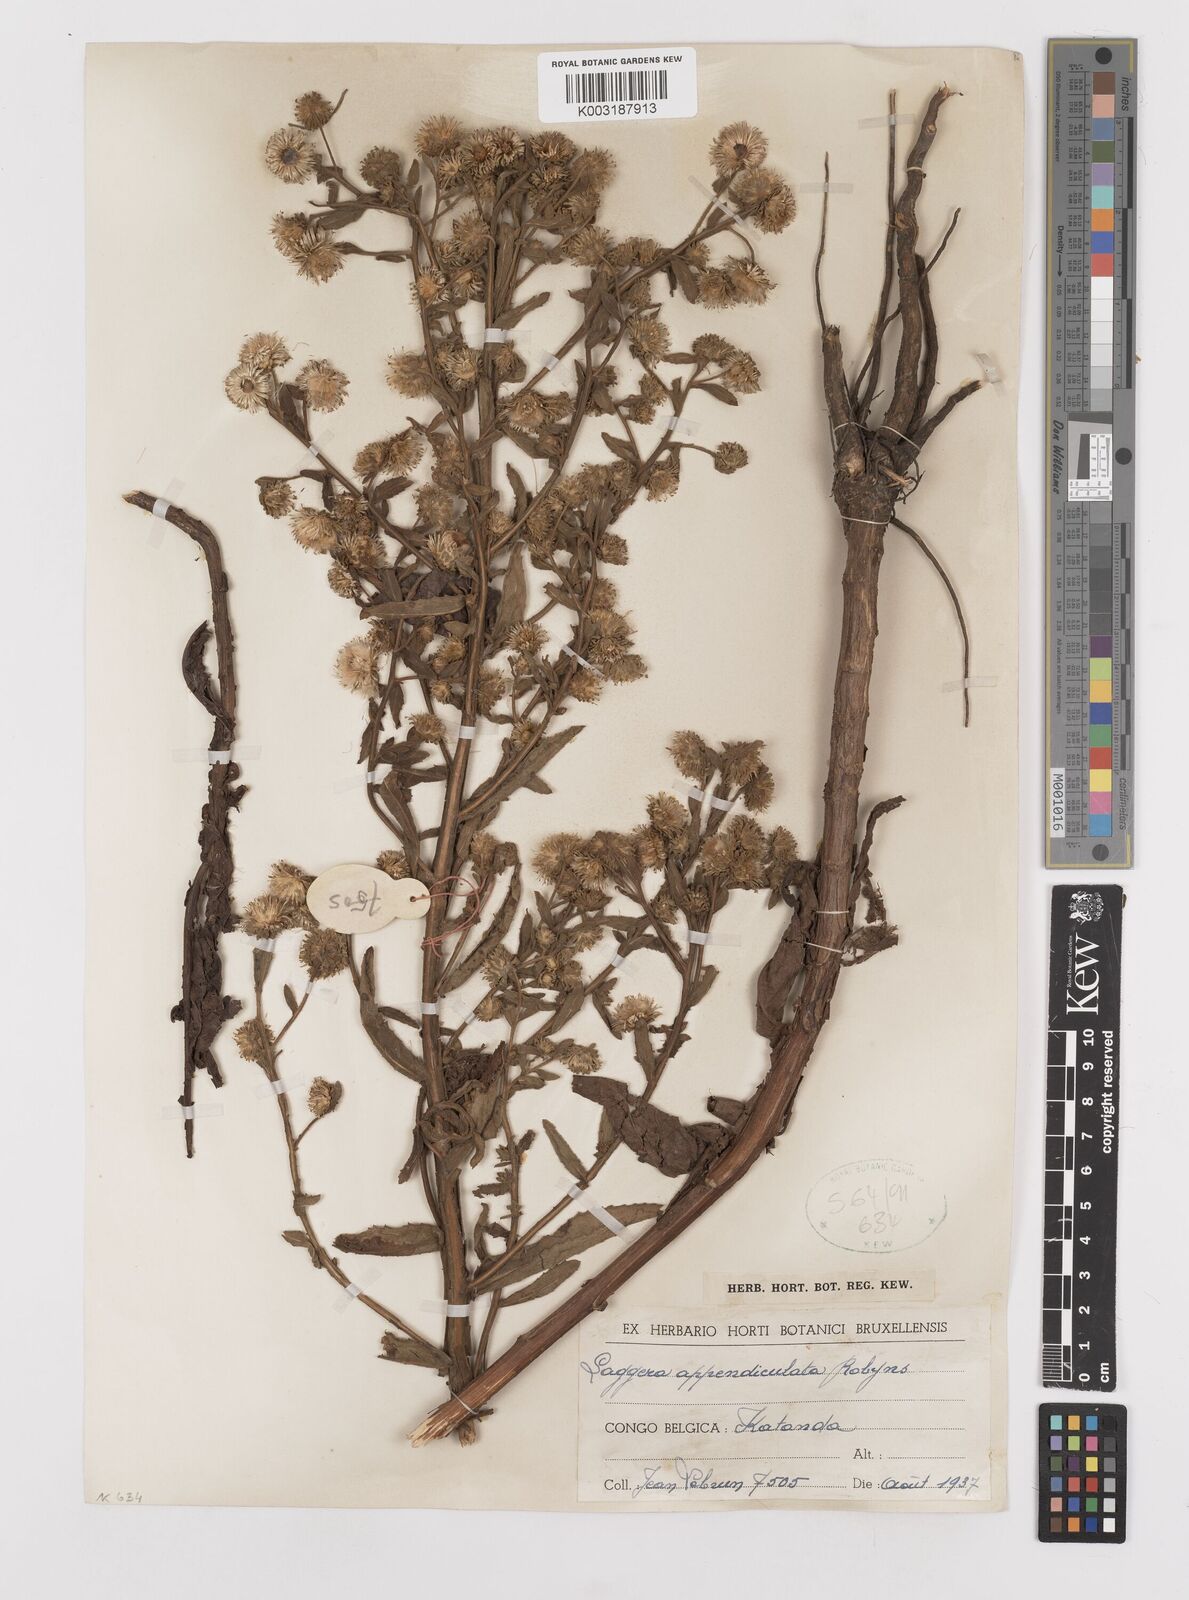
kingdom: Plantae
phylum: Tracheophyta
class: Magnoliopsida
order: Asterales
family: Asteraceae
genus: Laggera
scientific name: Laggera brevipes
